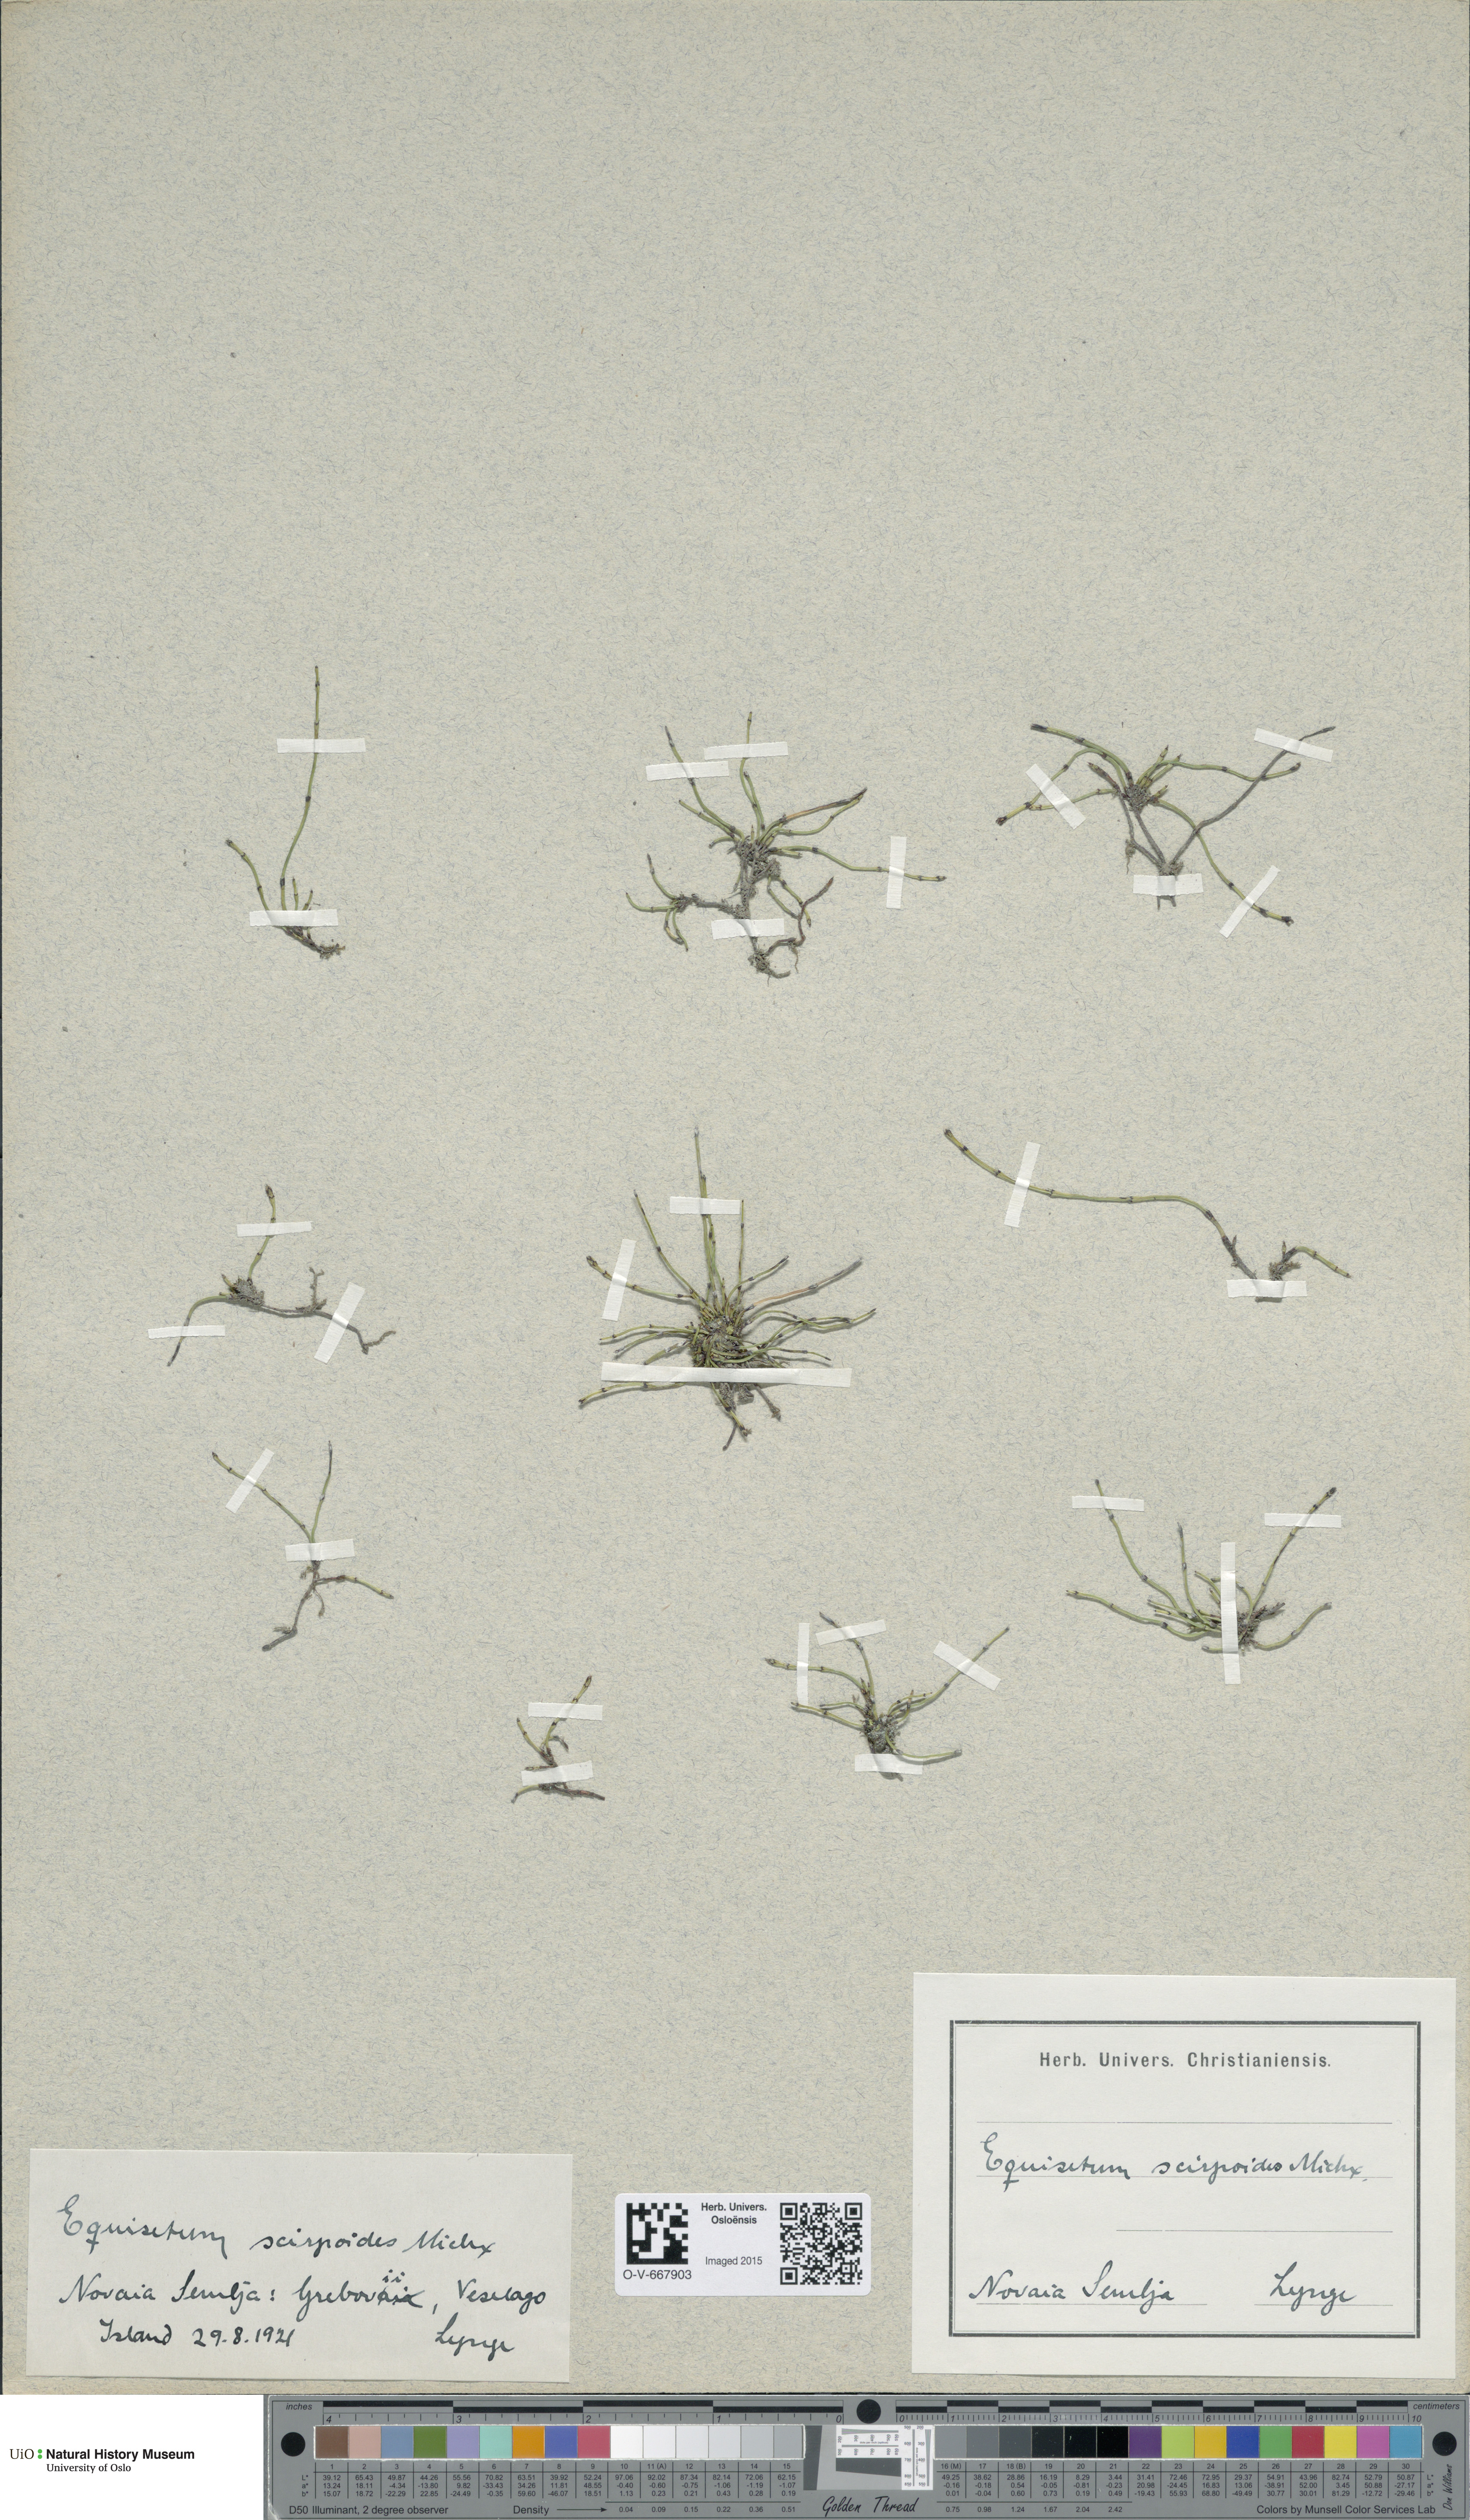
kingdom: Plantae
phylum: Tracheophyta
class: Polypodiopsida
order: Equisetales
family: Equisetaceae
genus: Equisetum
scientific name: Equisetum scirpoides
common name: Delicate horsetail
